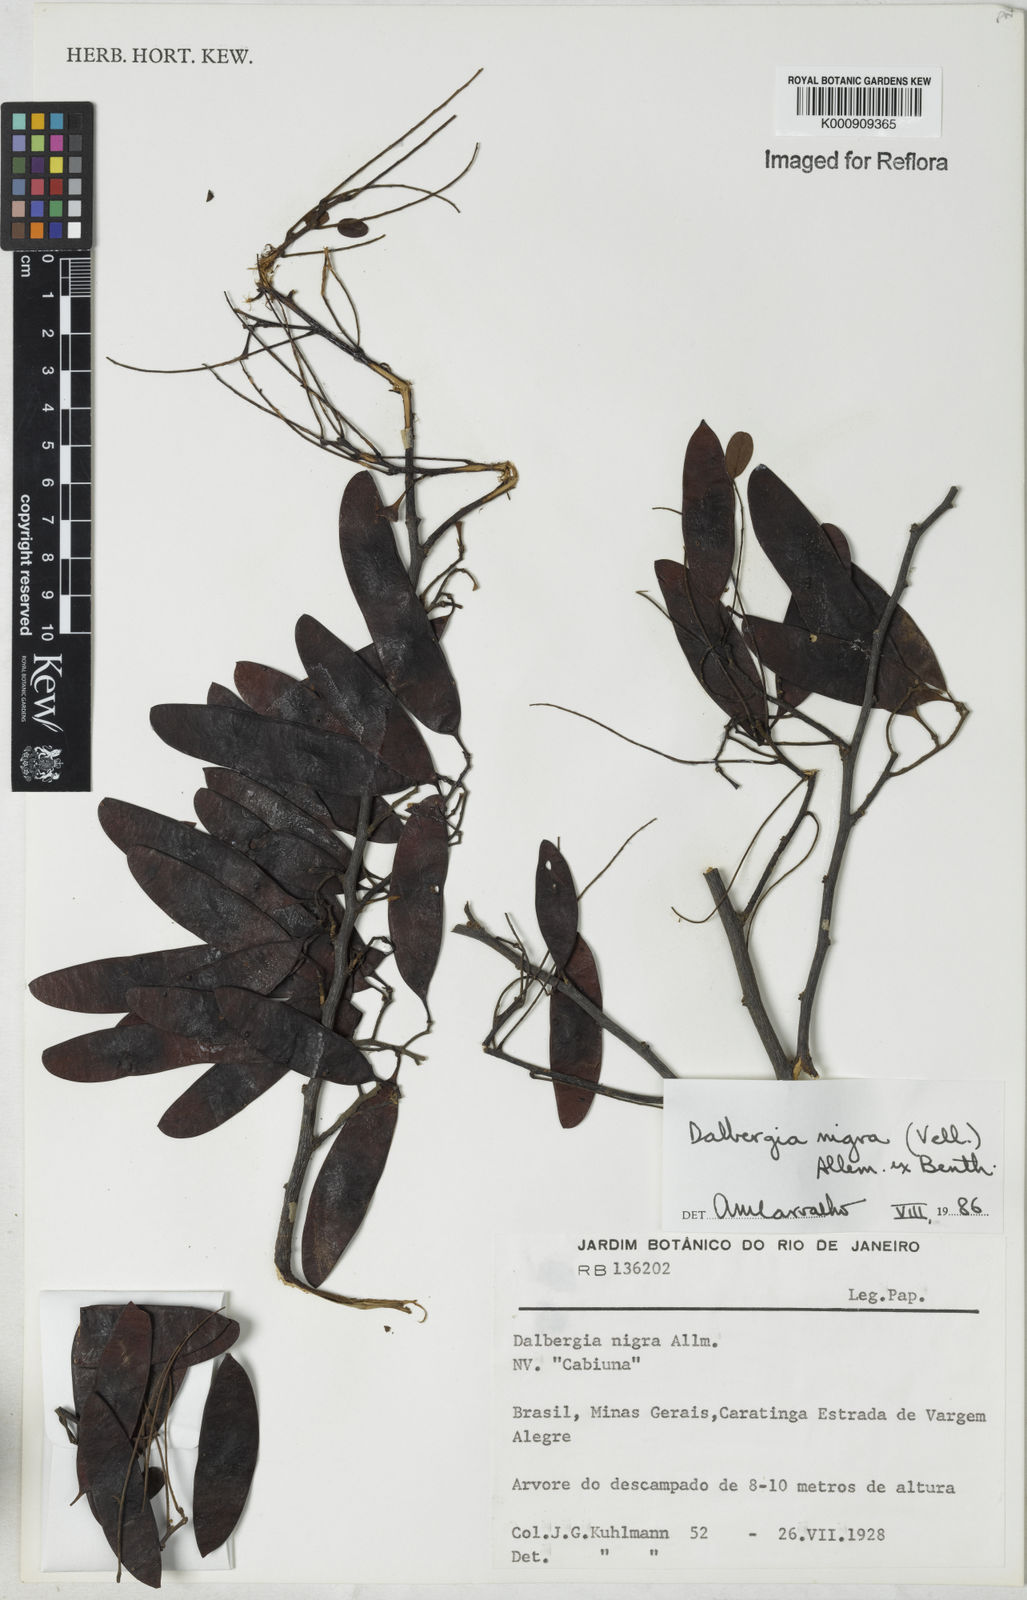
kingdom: Plantae
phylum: Tracheophyta
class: Magnoliopsida
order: Fabales
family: Fabaceae
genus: Dalbergia
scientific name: Dalbergia
